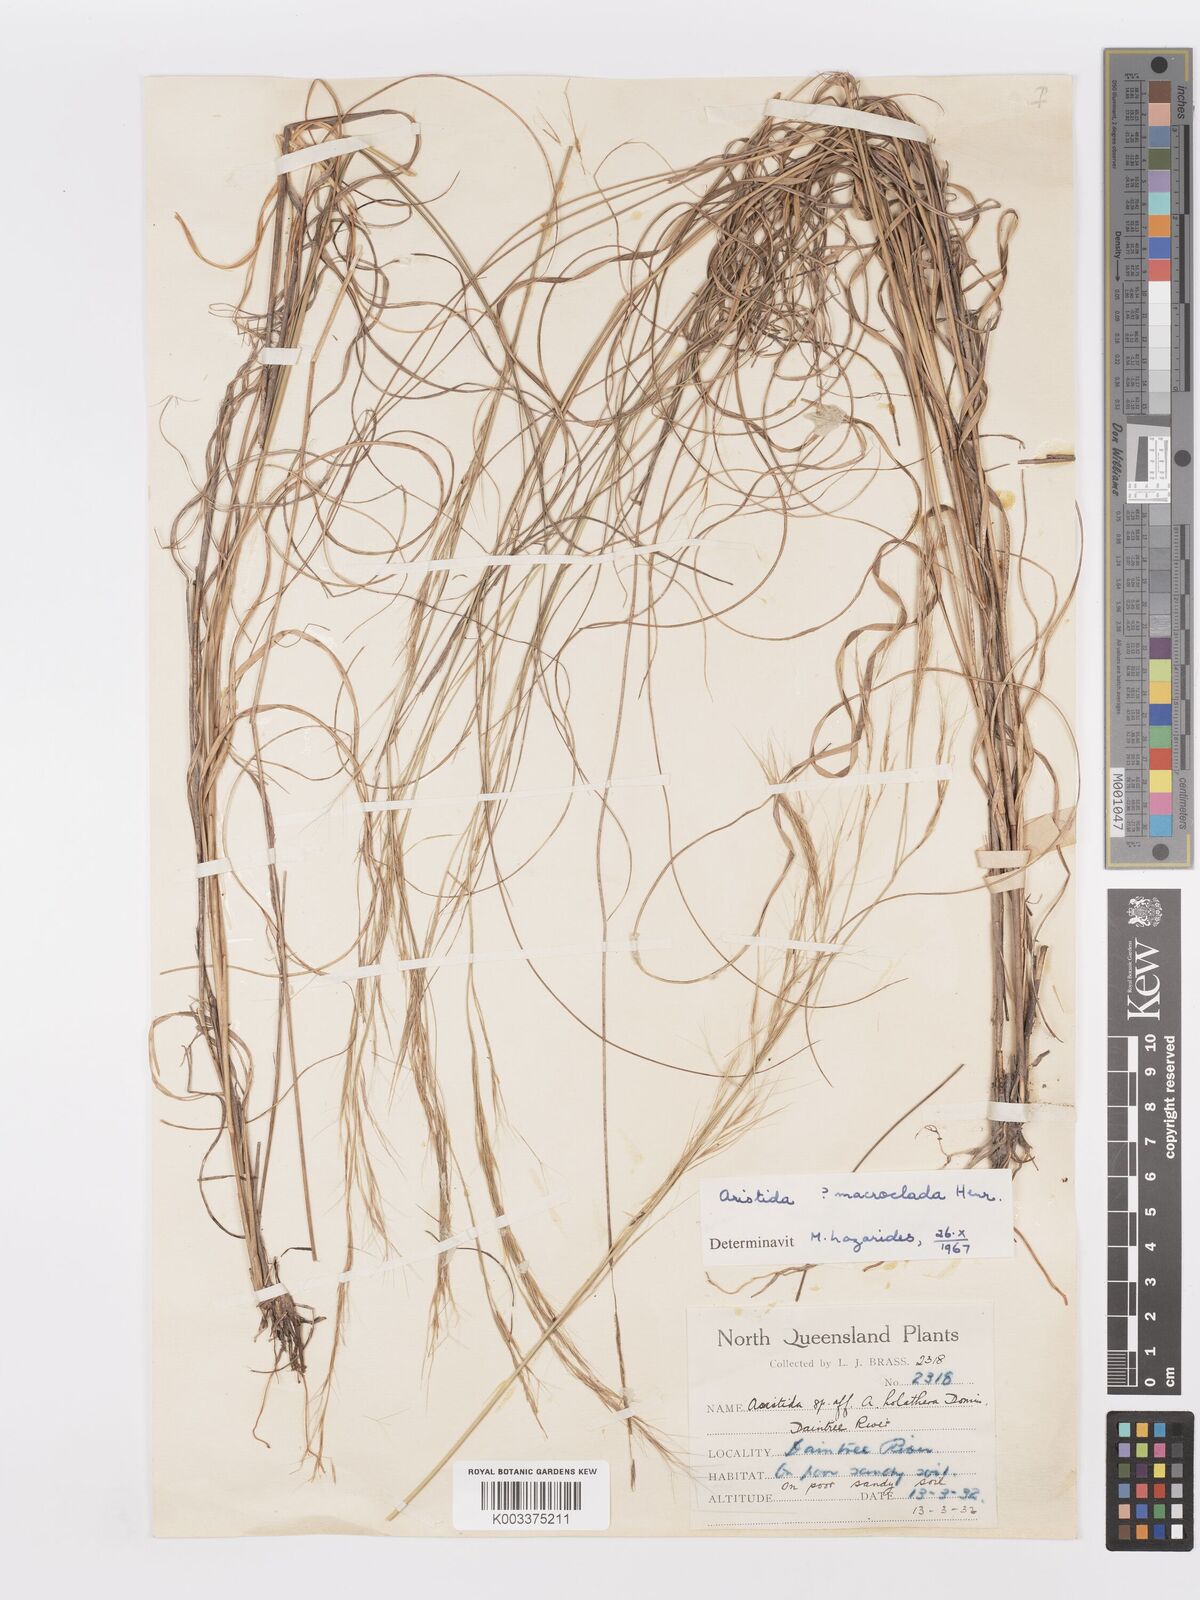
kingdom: Plantae
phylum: Tracheophyta
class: Liliopsida
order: Poales
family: Poaceae
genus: Aristida
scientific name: Aristida macroclada
